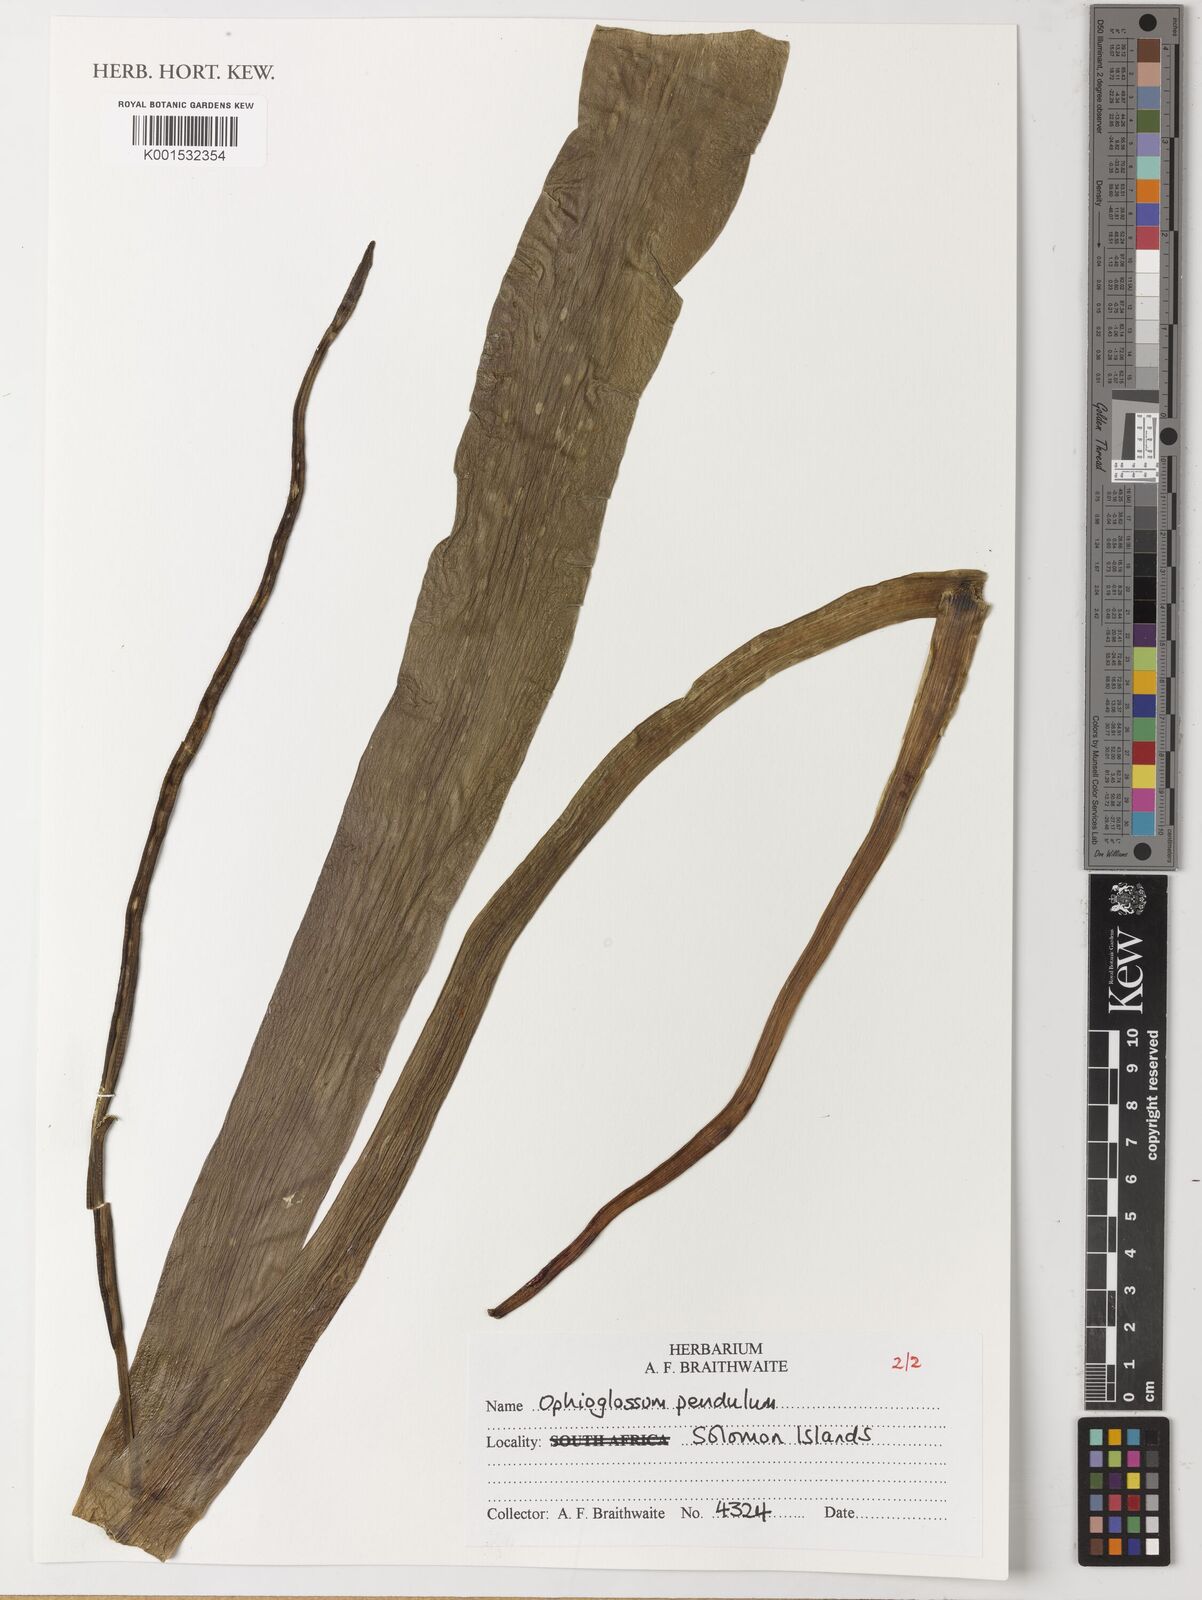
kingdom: Plantae
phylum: Tracheophyta
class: Polypodiopsida
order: Ophioglossales
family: Ophioglossaceae
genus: Ophioderma
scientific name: Ophioderma pendulum
